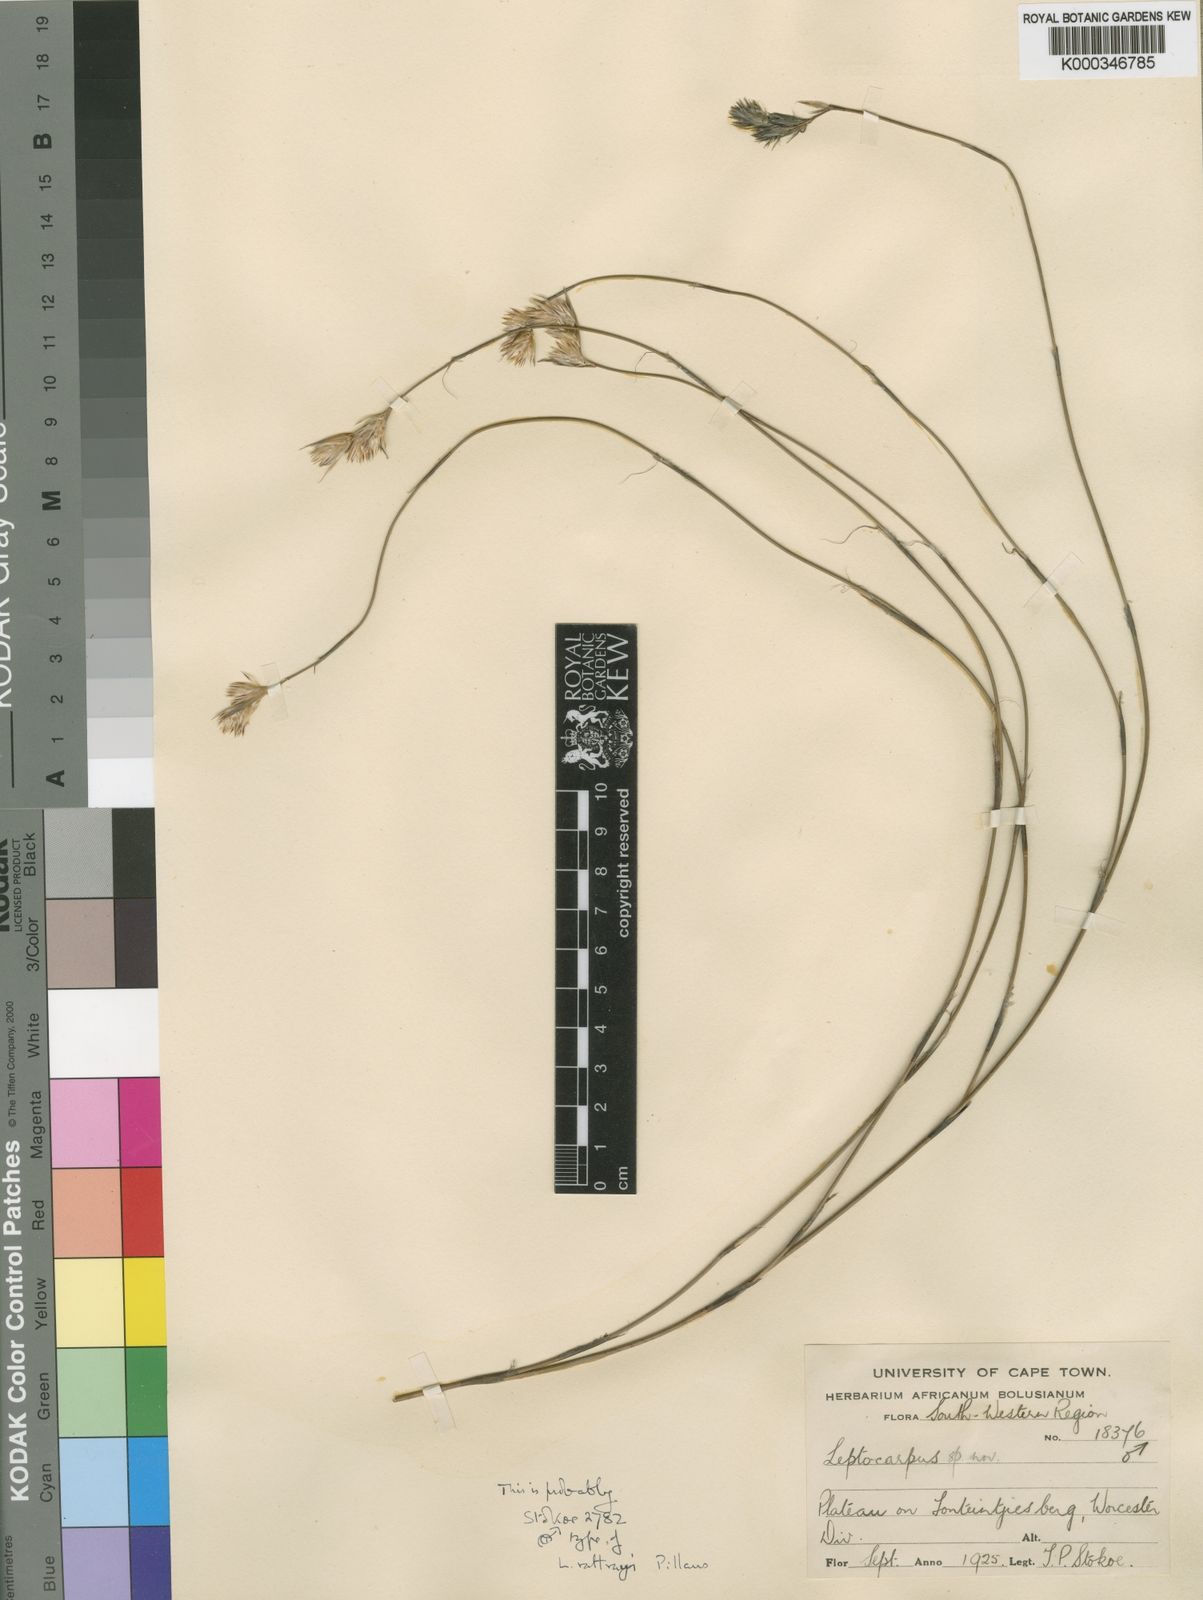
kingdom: Plantae
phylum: Tracheophyta
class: Liliopsida
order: Poales
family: Restionaceae
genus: Hydrophilus
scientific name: Hydrophilus rattrayi
